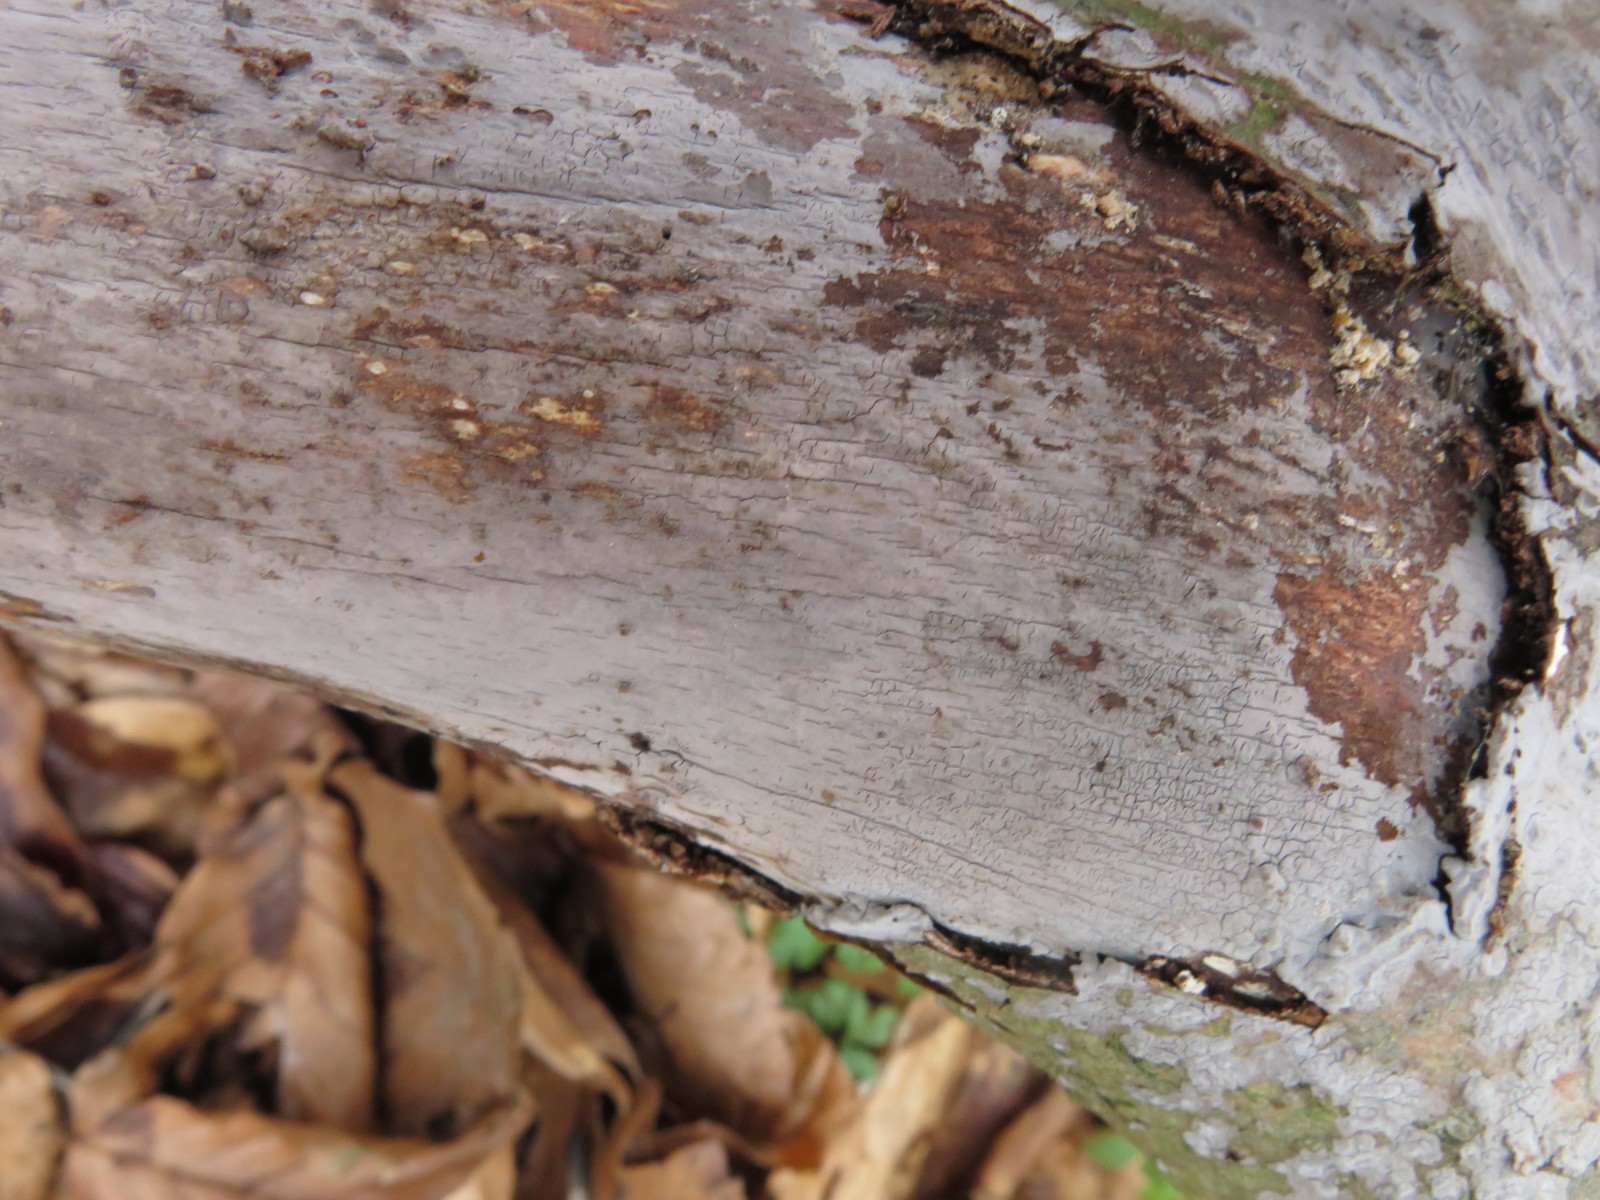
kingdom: Fungi
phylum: Basidiomycota
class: Agaricomycetes
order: Russulales
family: Peniophoraceae
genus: Peniophora
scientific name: Peniophora cinerea
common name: grå voksskind
